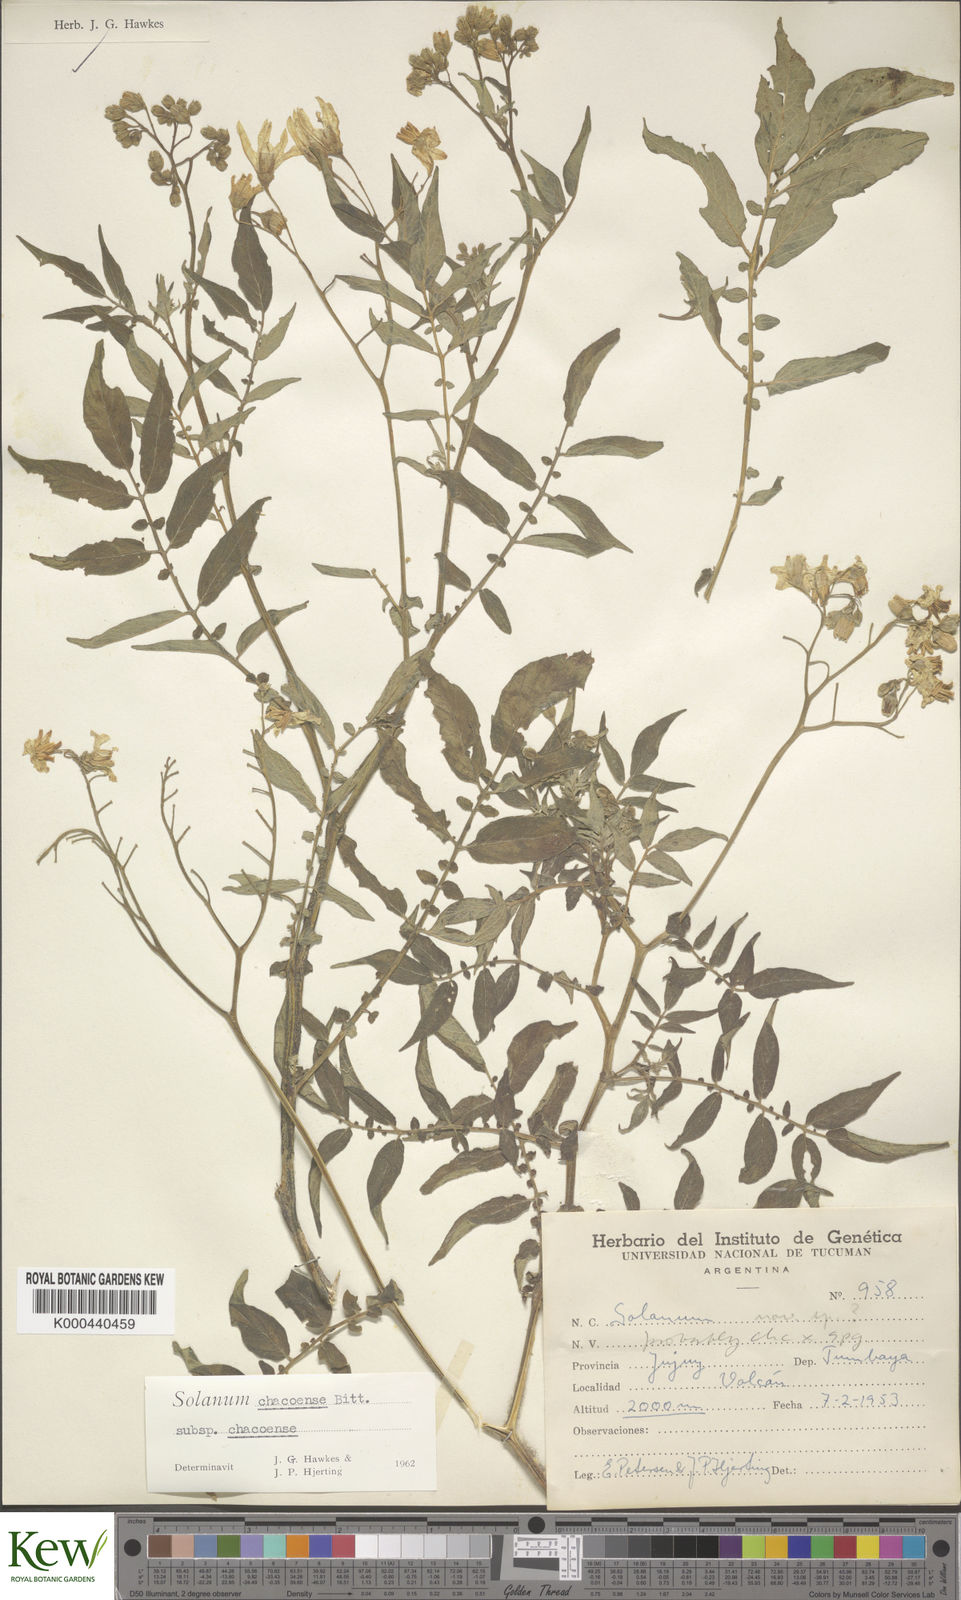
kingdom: Plantae
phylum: Tracheophyta
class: Magnoliopsida
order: Solanales
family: Solanaceae
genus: Solanum
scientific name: Solanum chacoense
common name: Chaco potato
